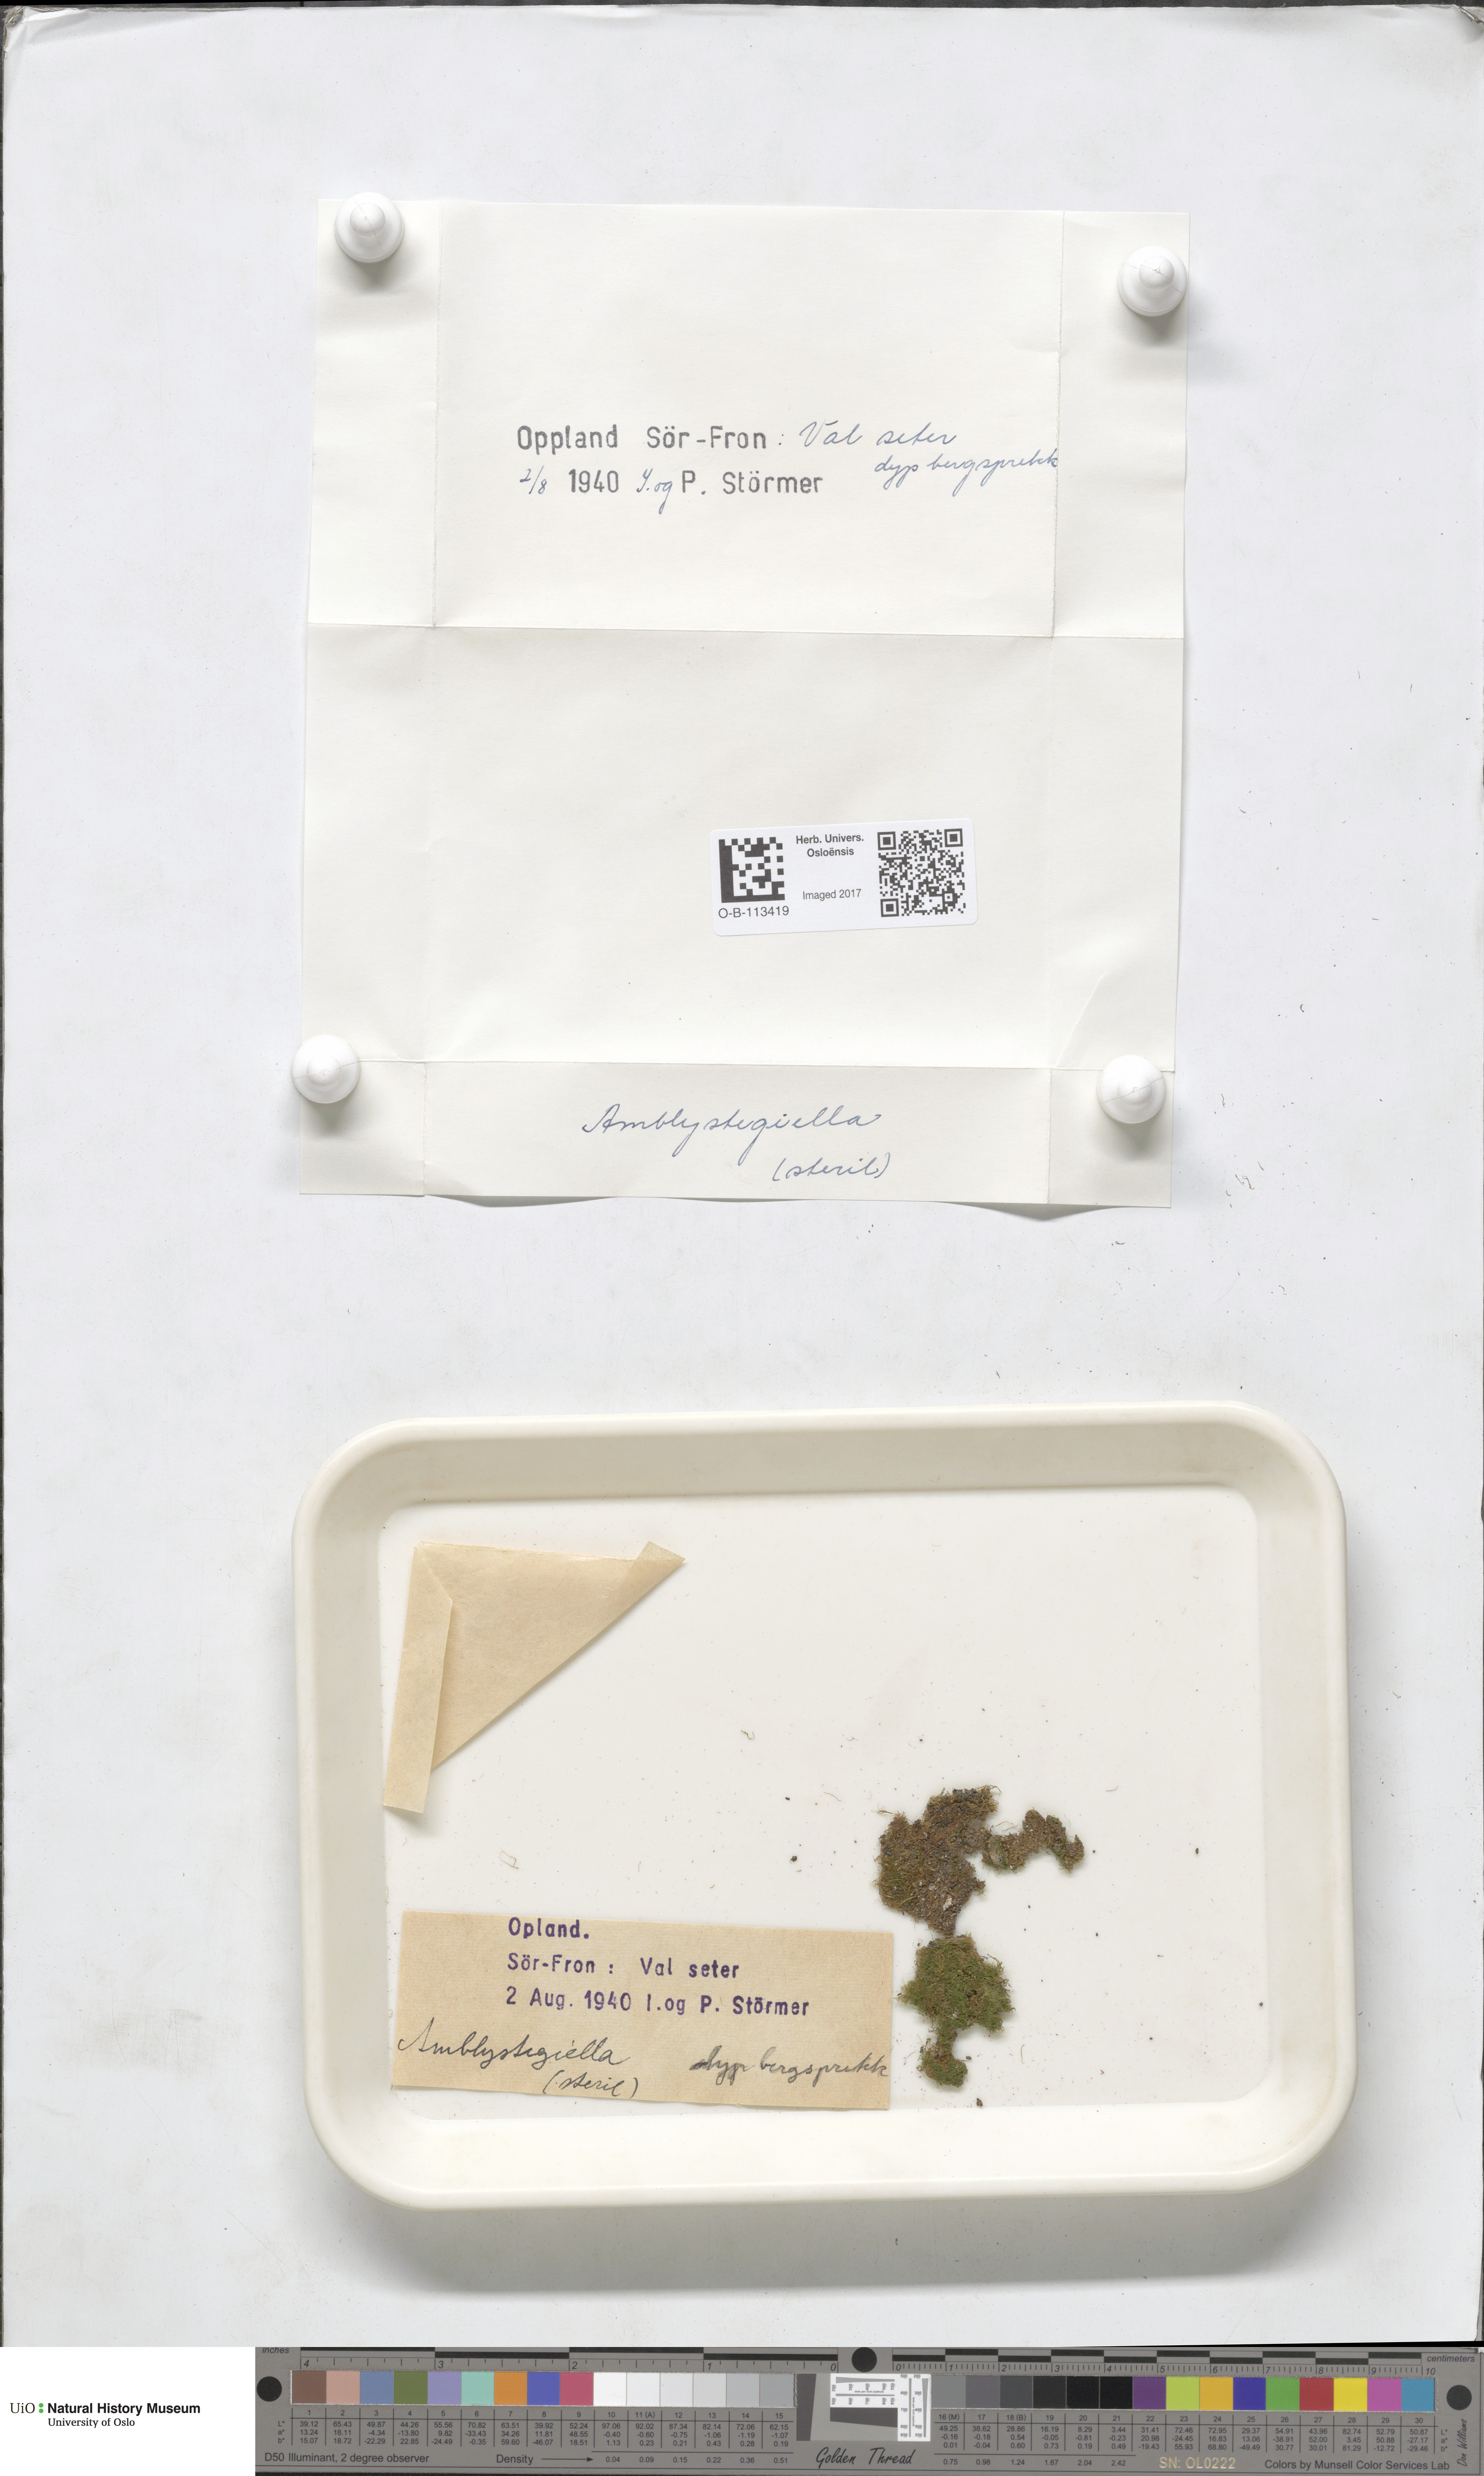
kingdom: Plantae
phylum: Bryophyta
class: Bryopsida
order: Hypnales
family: Plagiotheciaceae
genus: Platydictya
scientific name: Platydictya
